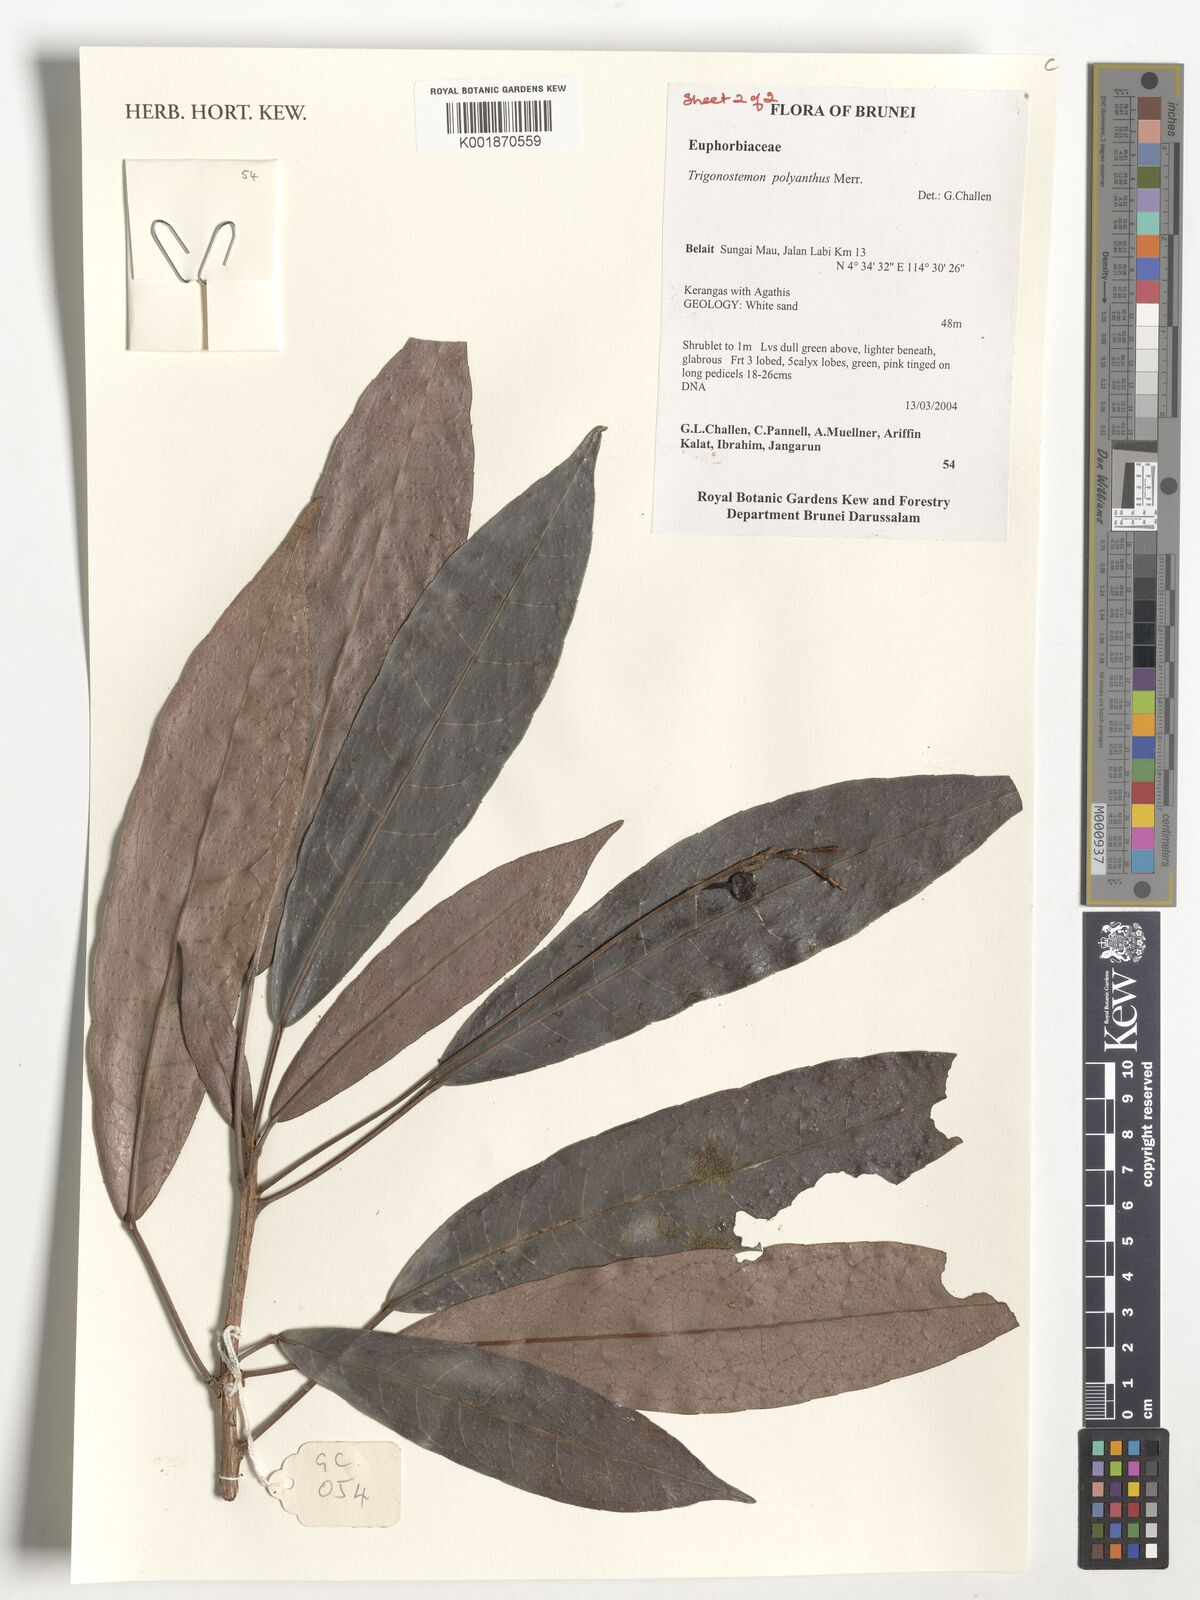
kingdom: Plantae
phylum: Tracheophyta
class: Magnoliopsida
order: Malpighiales
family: Euphorbiaceae
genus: Trigonostemon
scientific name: Trigonostemon polyanthus
